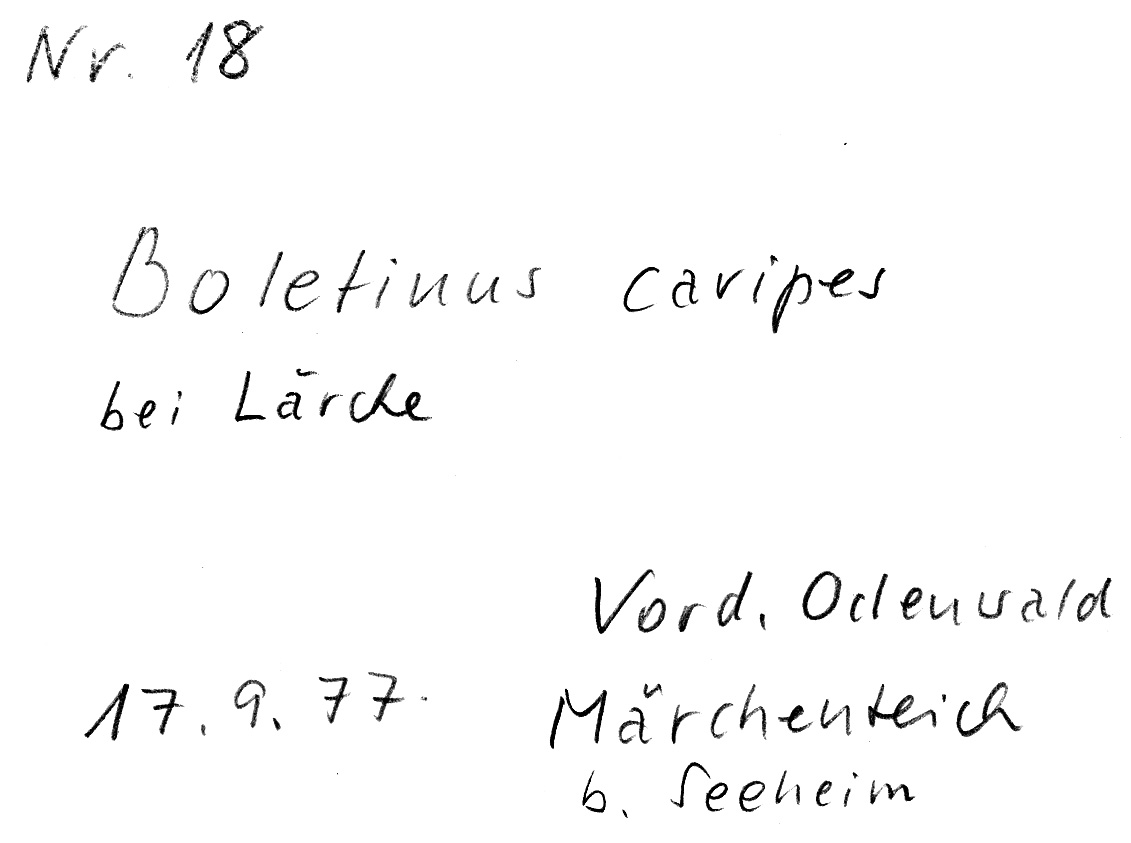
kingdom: Fungi
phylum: Basidiomycota
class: Agaricomycetes
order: Boletales
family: Suillaceae
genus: Suillus
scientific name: Suillus cavipes
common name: Hollow bolete
